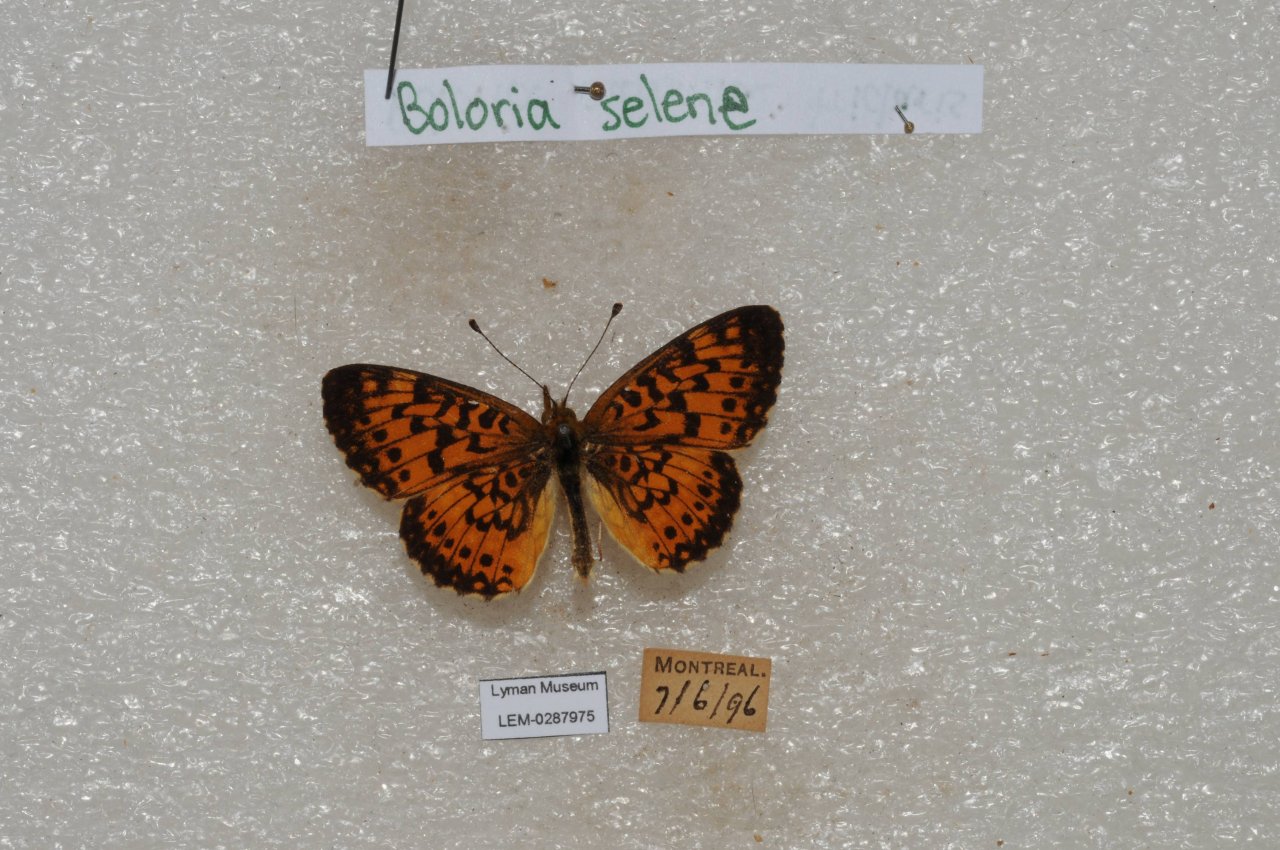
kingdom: Animalia
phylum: Arthropoda
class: Insecta
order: Lepidoptera
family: Nymphalidae
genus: Boloria
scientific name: Boloria selene
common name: Silver-bordered Fritillary
